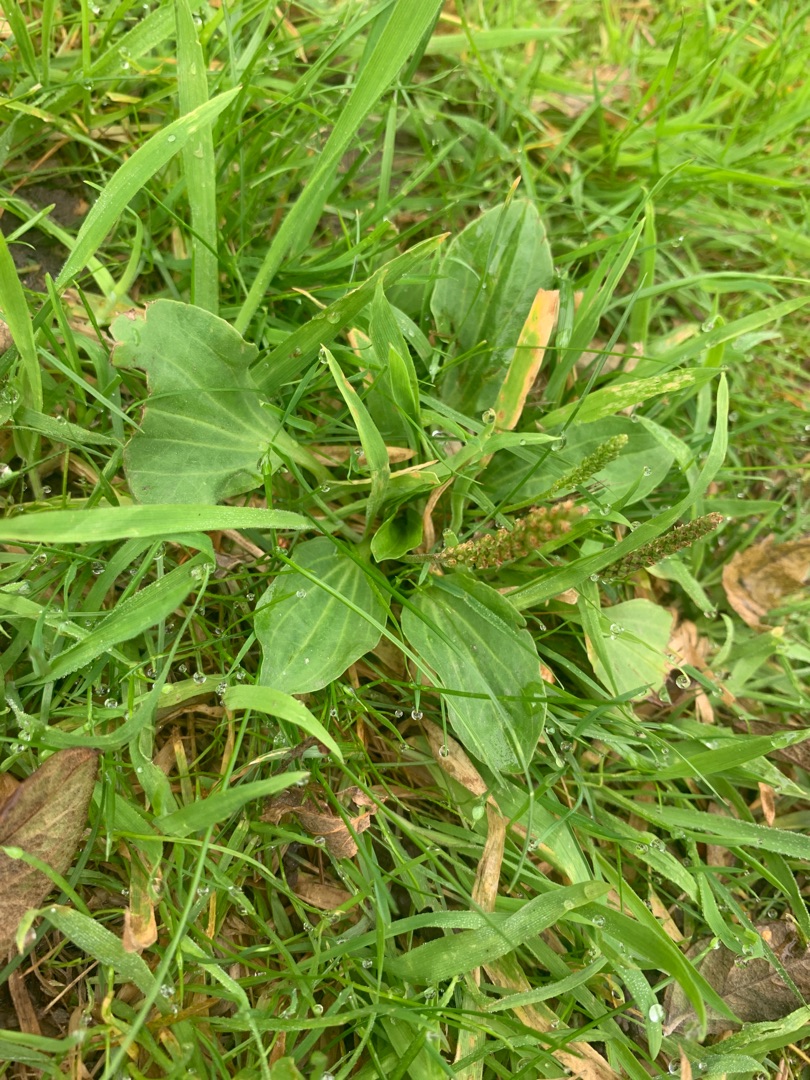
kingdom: Plantae
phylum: Tracheophyta
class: Magnoliopsida
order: Lamiales
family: Plantaginaceae
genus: Plantago
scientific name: Plantago major
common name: Glat vejbred
